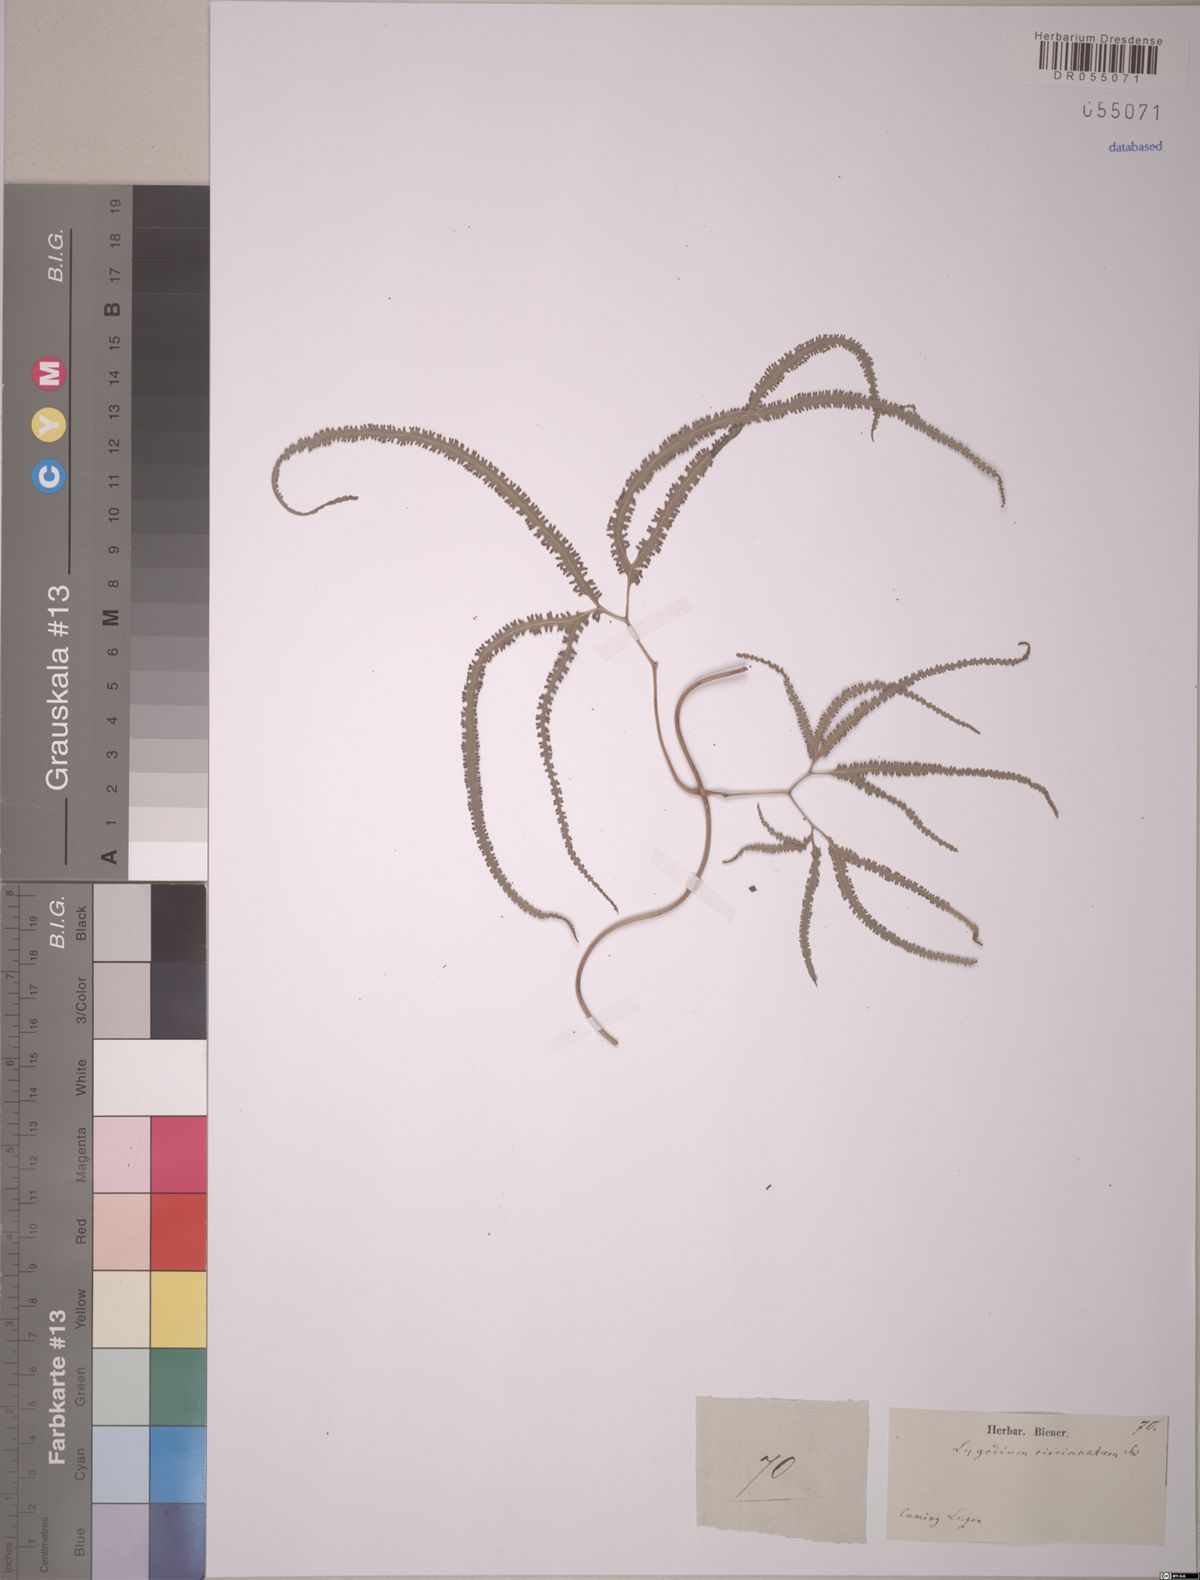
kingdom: Plantae
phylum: Tracheophyta
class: Polypodiopsida
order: Schizaeales
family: Lygodiaceae
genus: Lygodium
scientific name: Lygodium circinnatum
